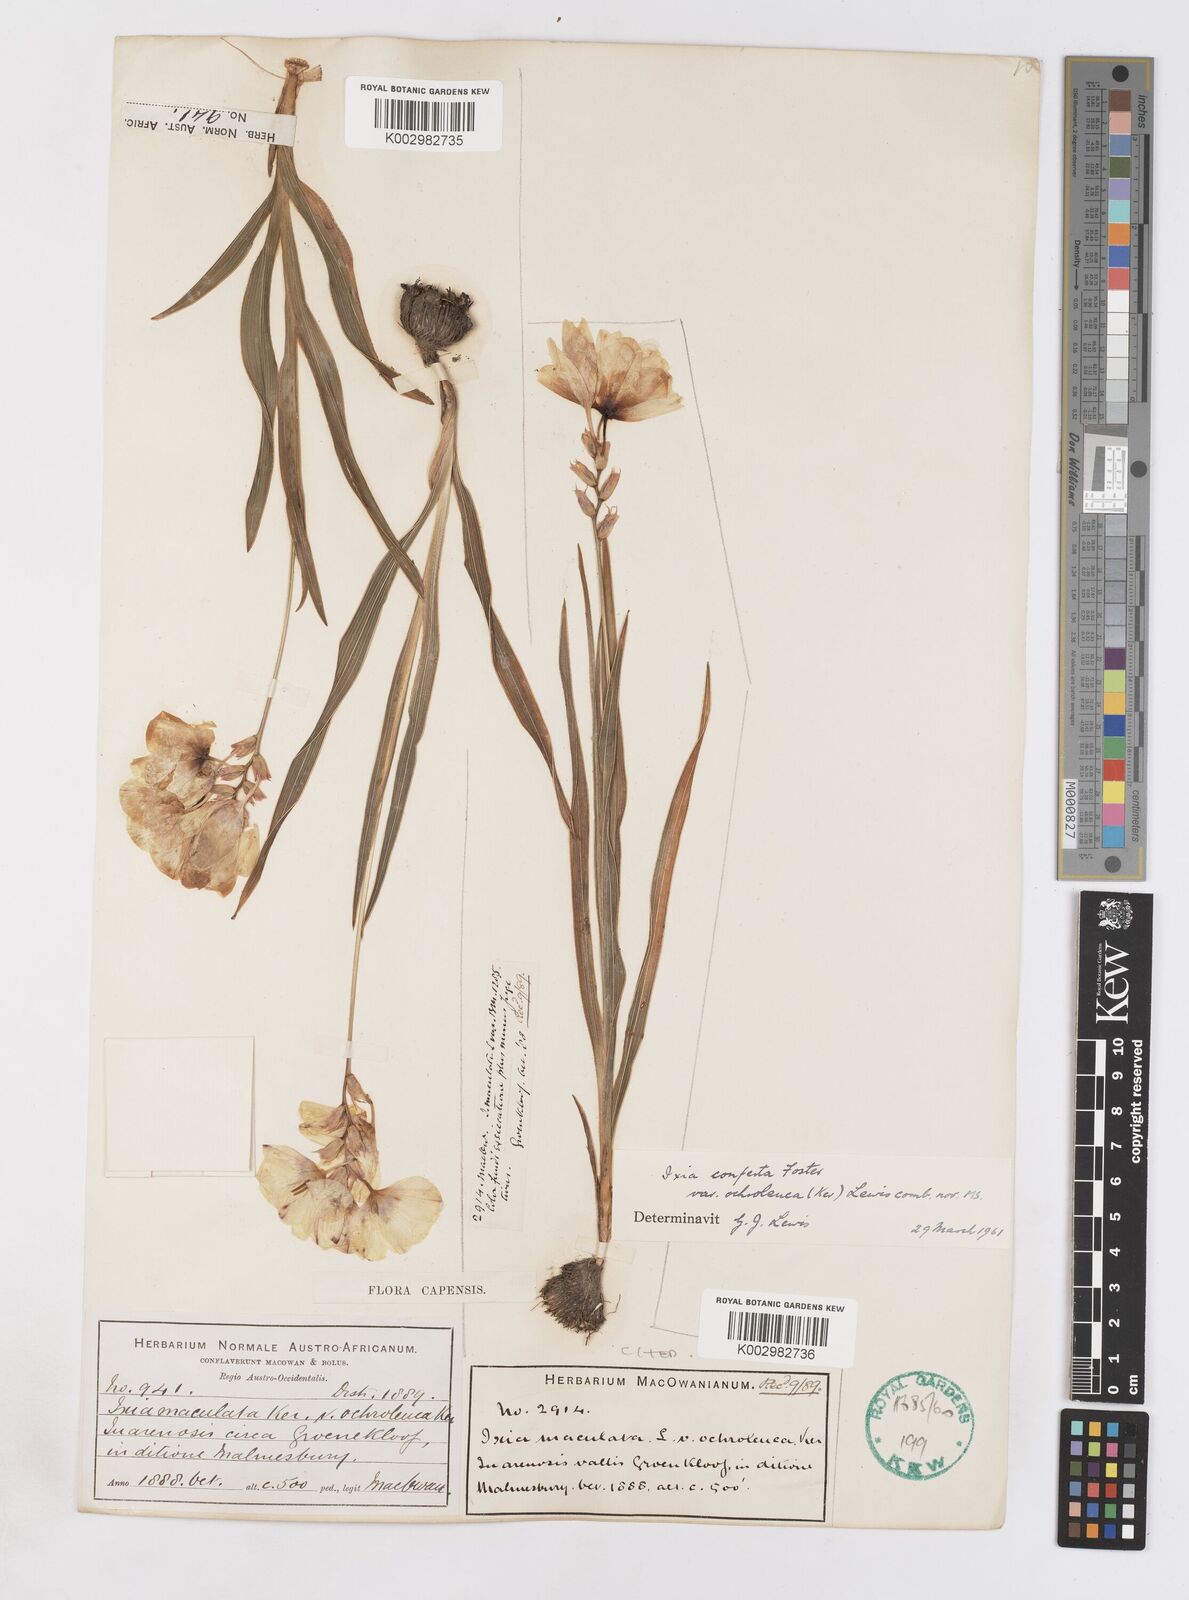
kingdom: Plantae
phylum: Tracheophyta
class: Liliopsida
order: Asparagales
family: Iridaceae
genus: Ixia
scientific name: Ixia abbreviata
